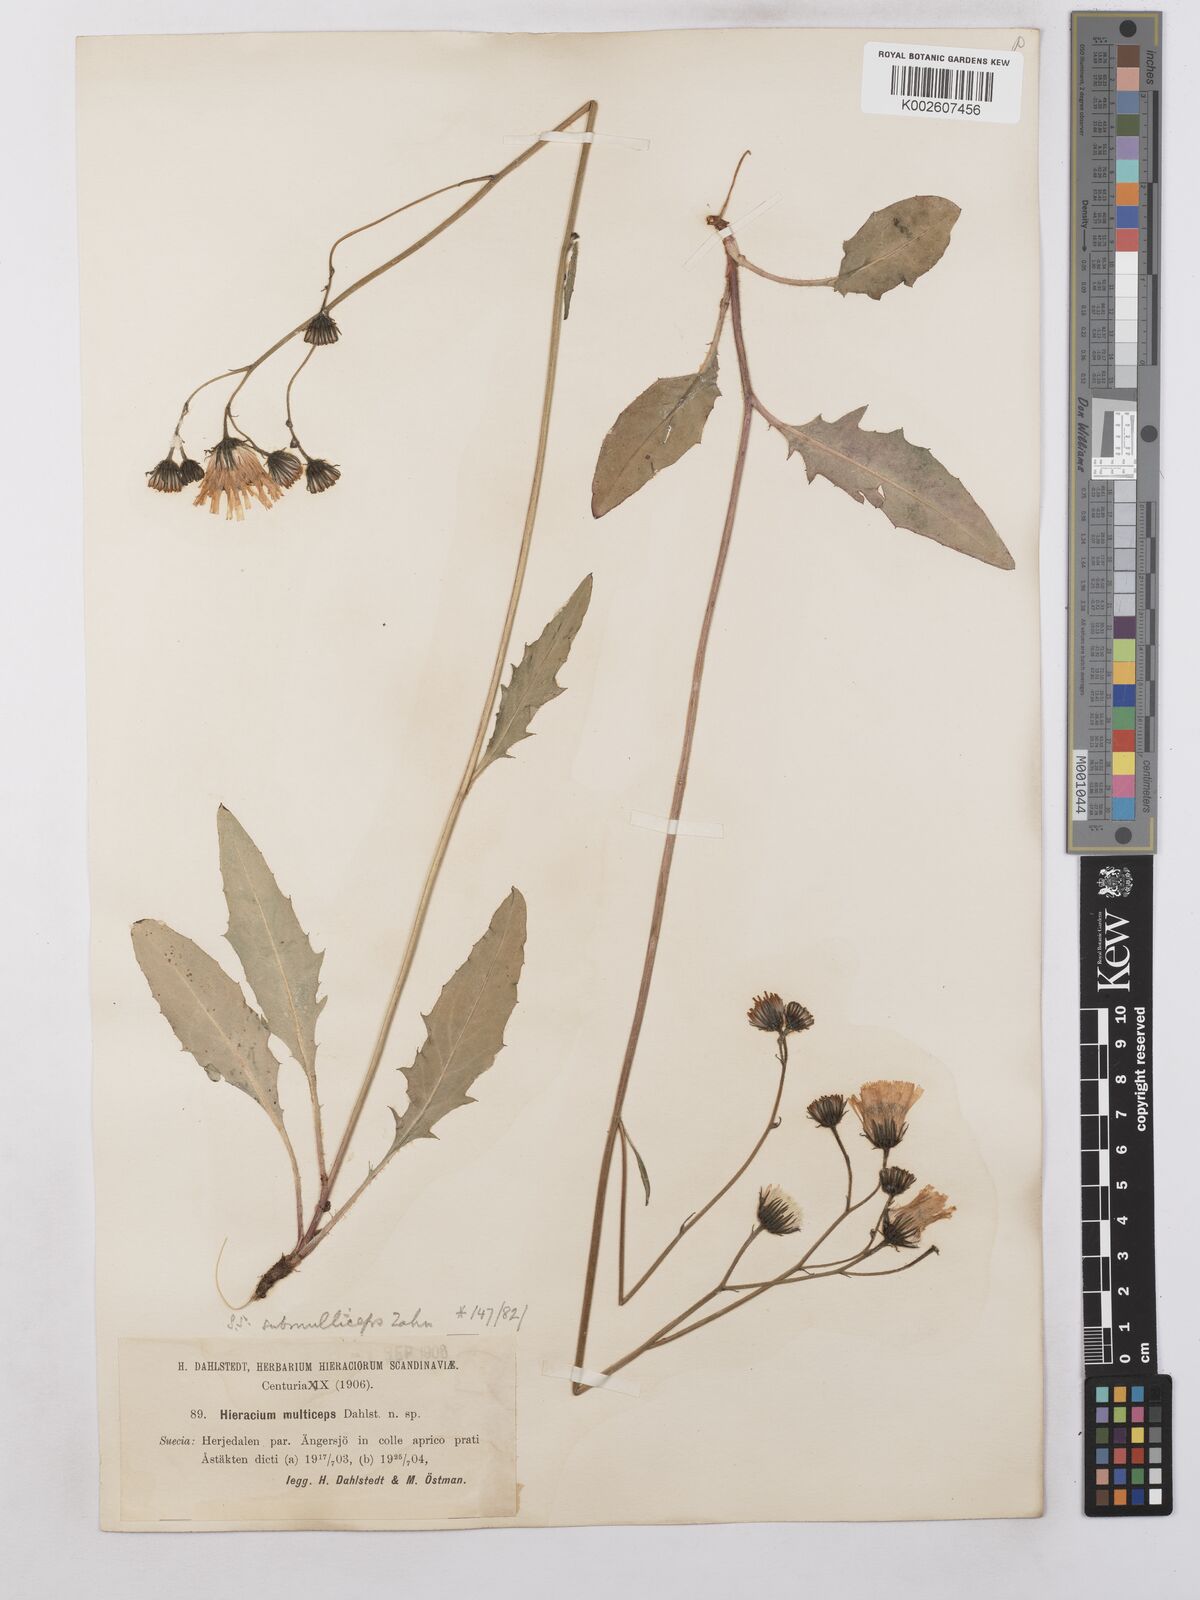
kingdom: Plantae
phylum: Tracheophyta
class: Magnoliopsida
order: Asterales
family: Asteraceae
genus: Hieracium
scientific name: Hieracium caesium
